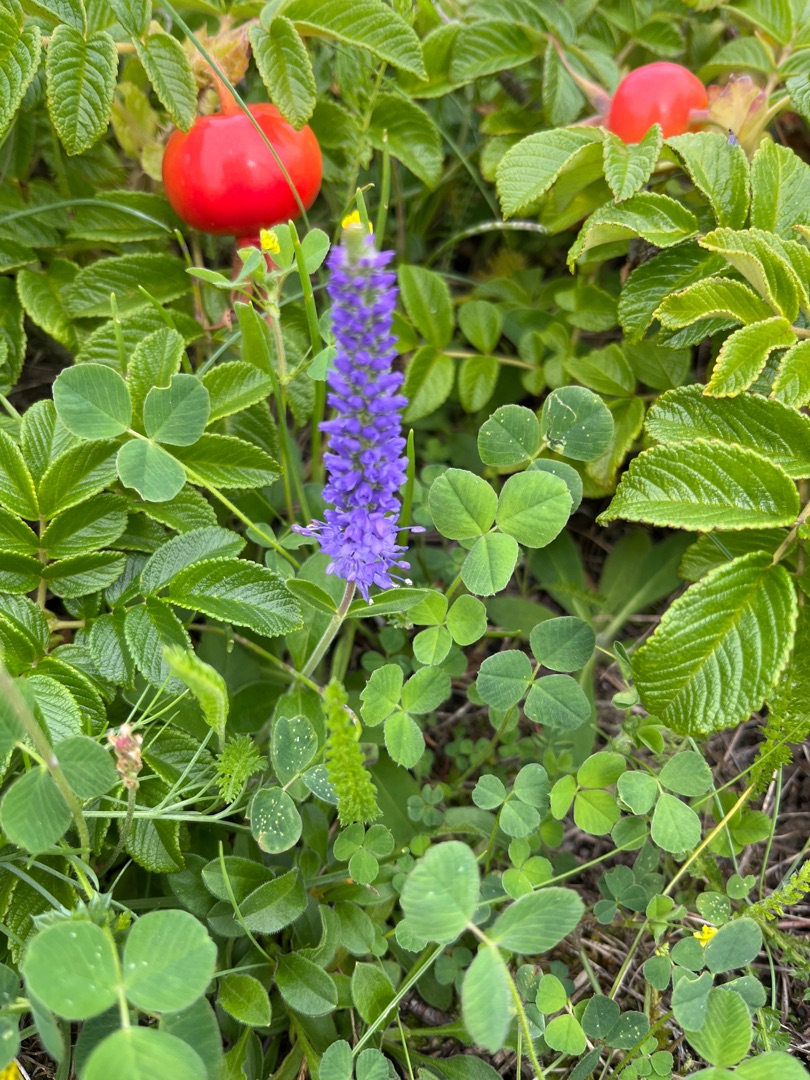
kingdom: Plantae
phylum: Tracheophyta
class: Magnoliopsida
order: Lamiales
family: Plantaginaceae
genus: Veronica
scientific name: Veronica spicata
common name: Aks-ærenpris
